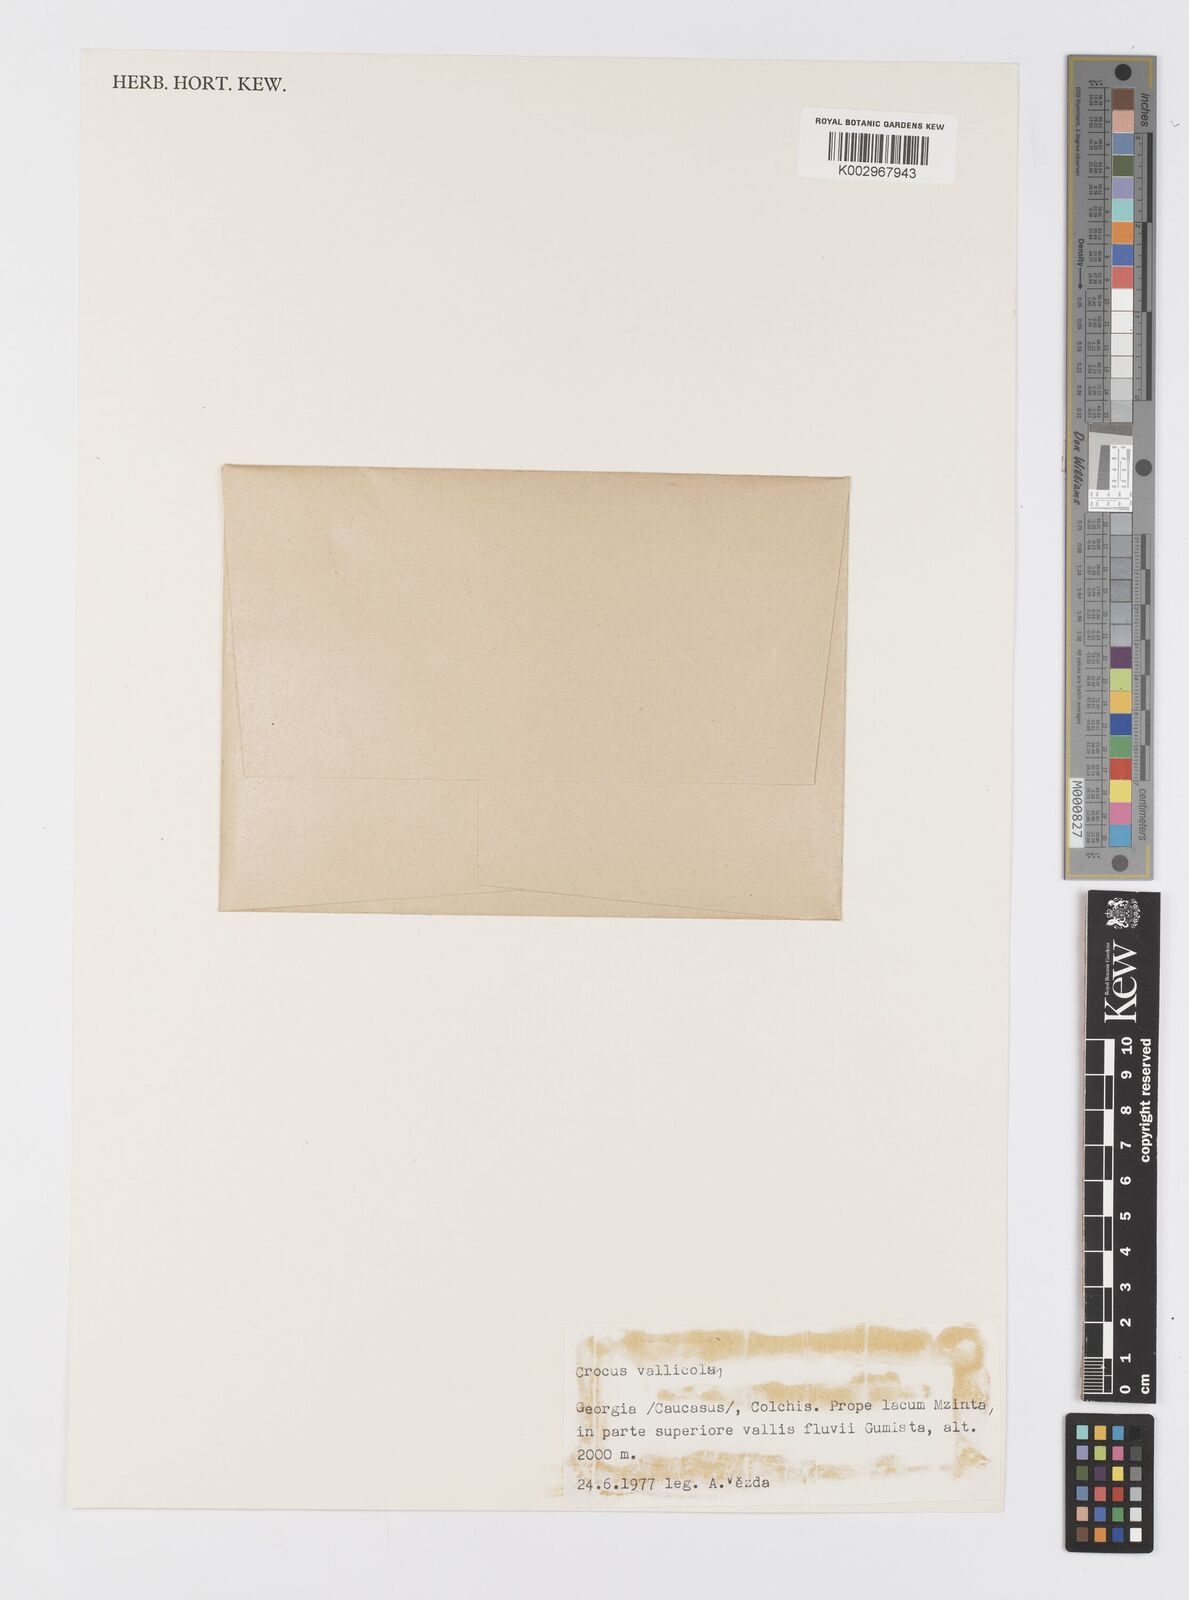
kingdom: Plantae
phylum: Tracheophyta
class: Liliopsida
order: Asparagales
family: Iridaceae
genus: Crocus
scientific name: Crocus vallicola
